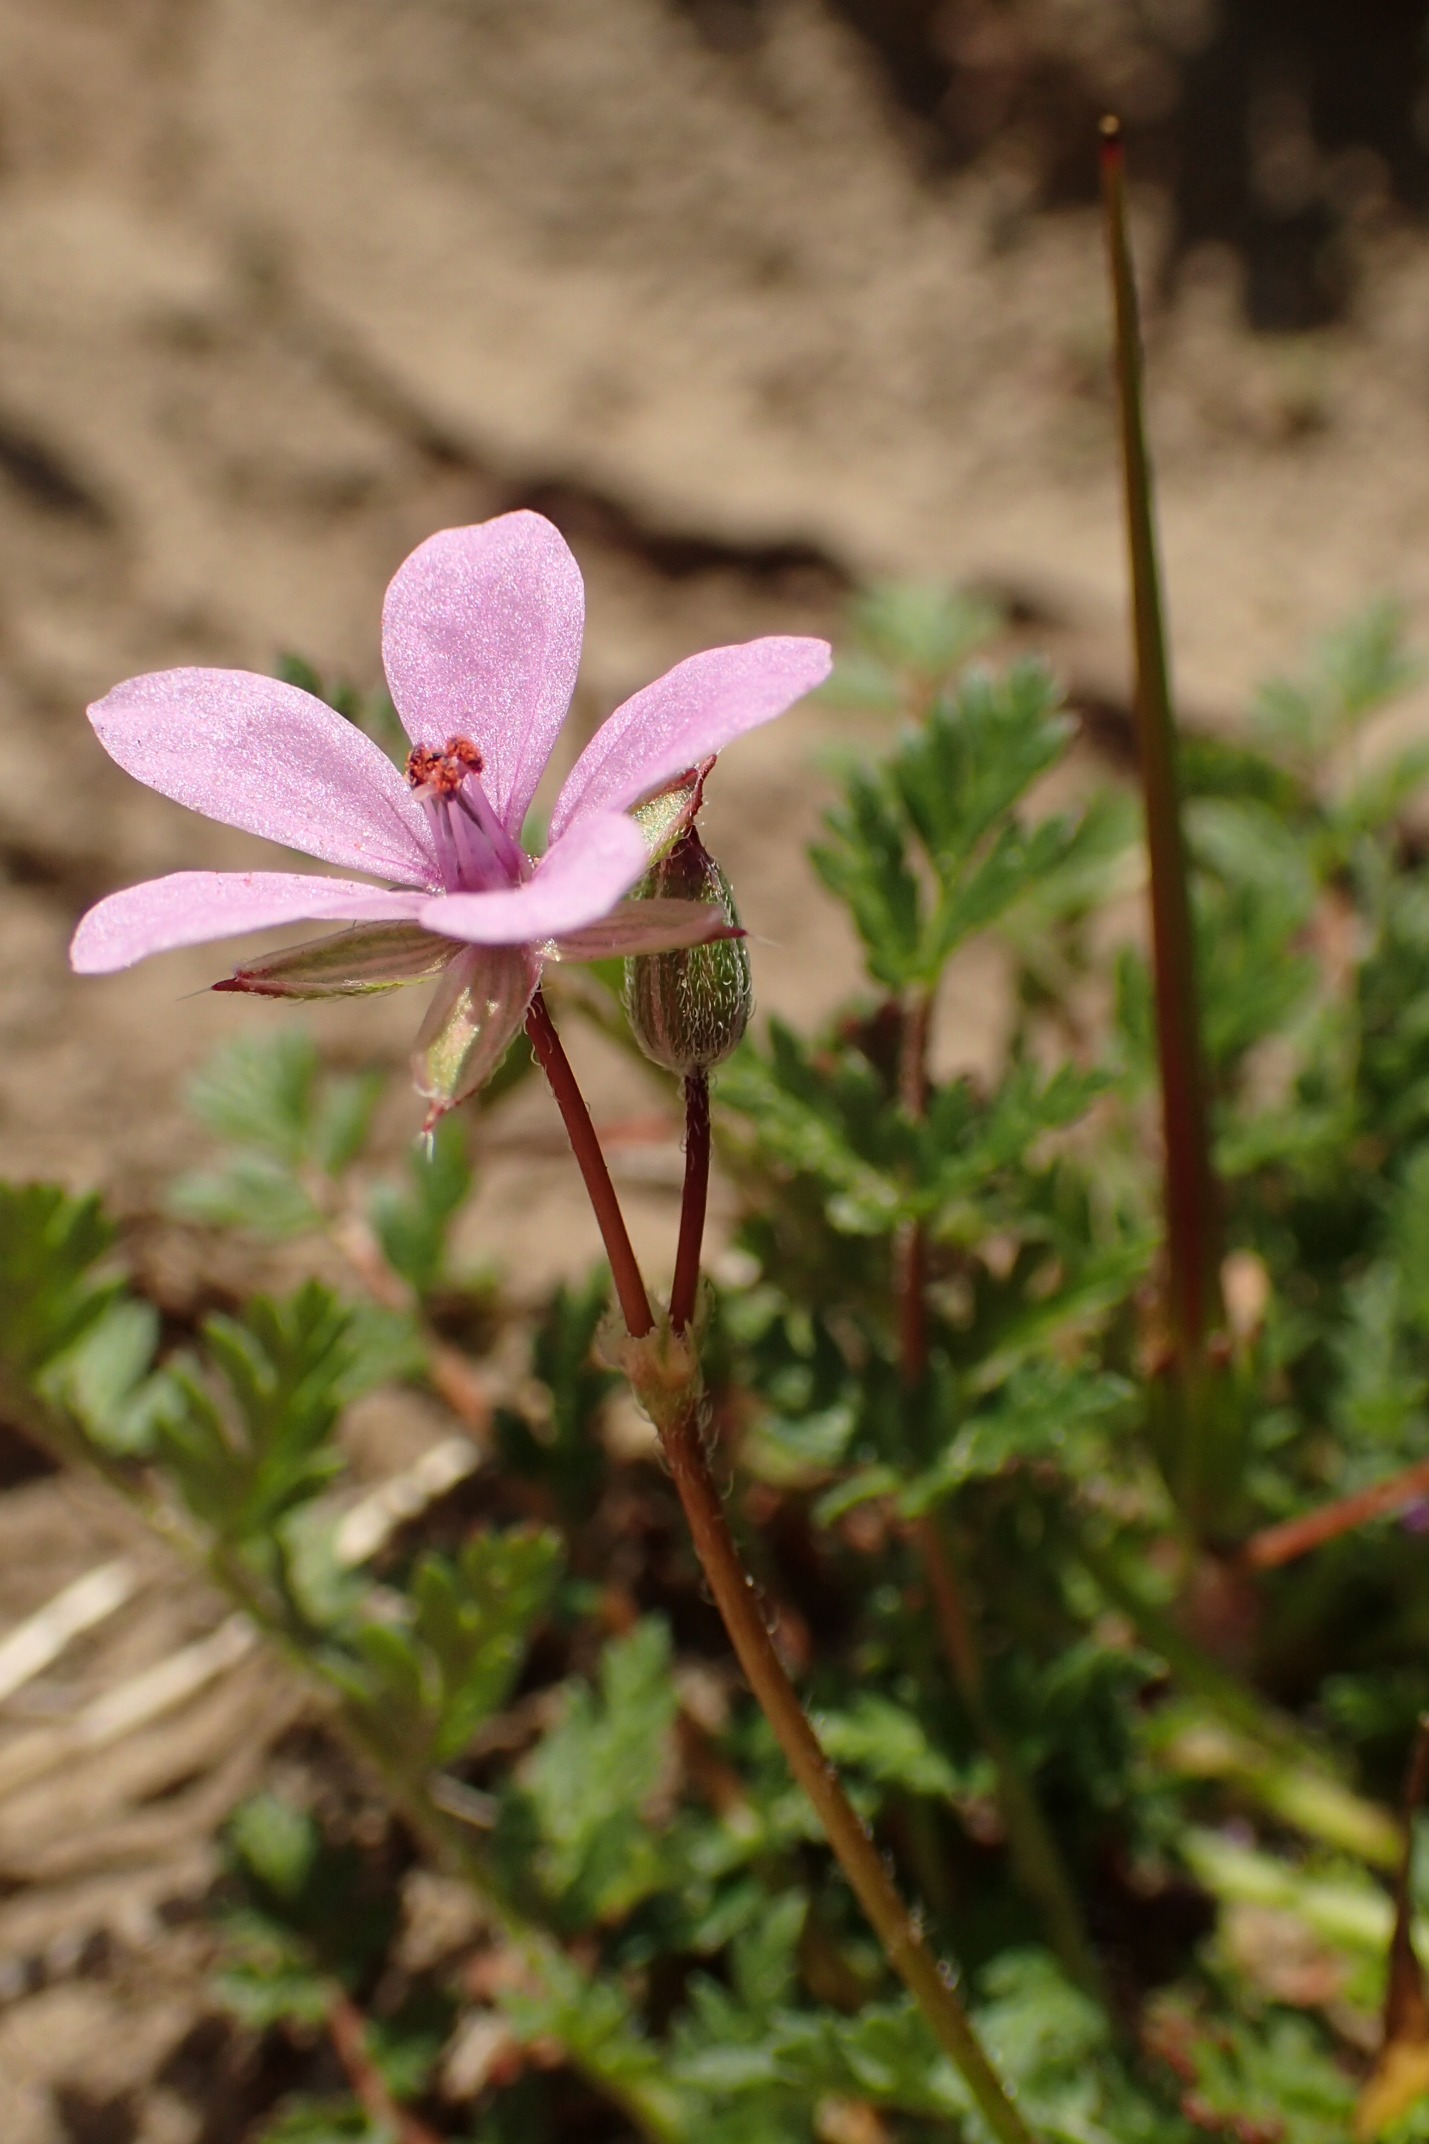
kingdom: Plantae
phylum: Tracheophyta
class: Magnoliopsida
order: Geraniales
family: Geraniaceae
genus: Erodium
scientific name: Erodium cicutarium
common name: Hejrenæb
